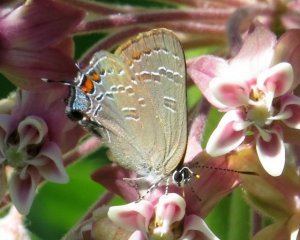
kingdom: Animalia
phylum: Arthropoda
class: Insecta
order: Lepidoptera
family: Lycaenidae
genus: Satyrium
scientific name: Satyrium calanus
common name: Banded Hairstreak
